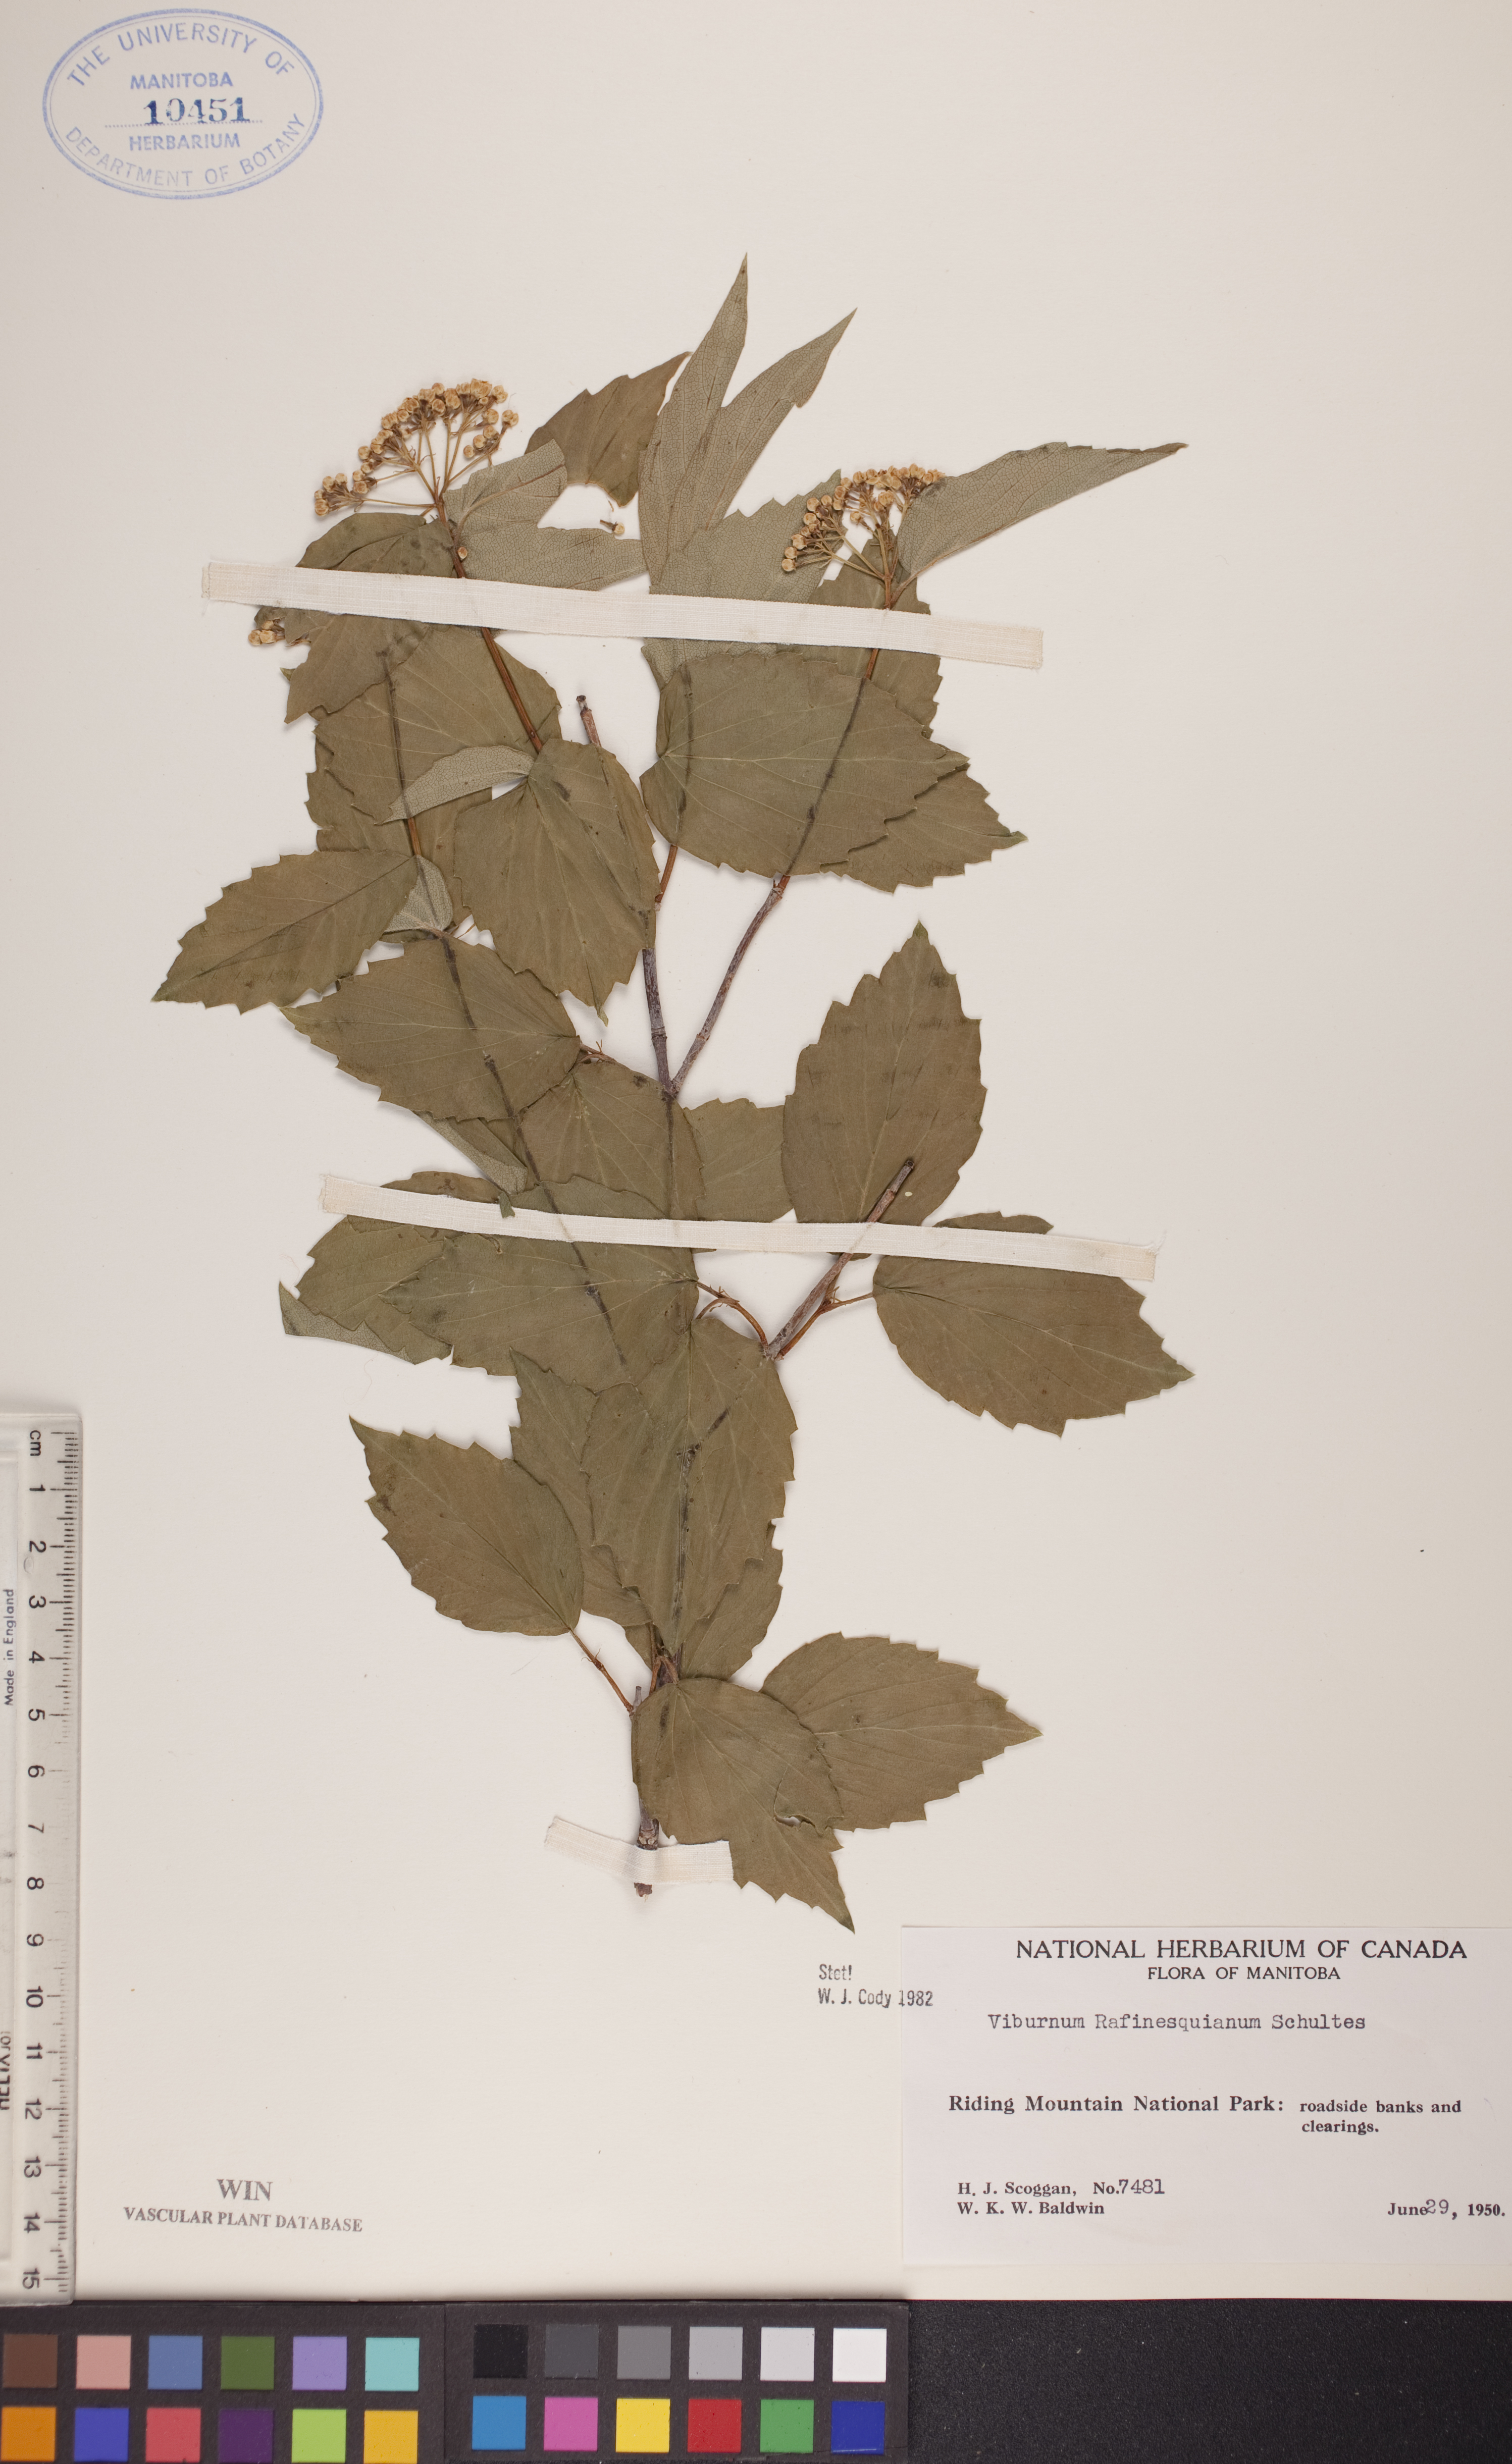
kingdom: Plantae
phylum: Tracheophyta
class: Magnoliopsida
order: Dipsacales
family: Viburnaceae
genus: Viburnum
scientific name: Viburnum rafinesquianum
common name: Downy arrow-wood
